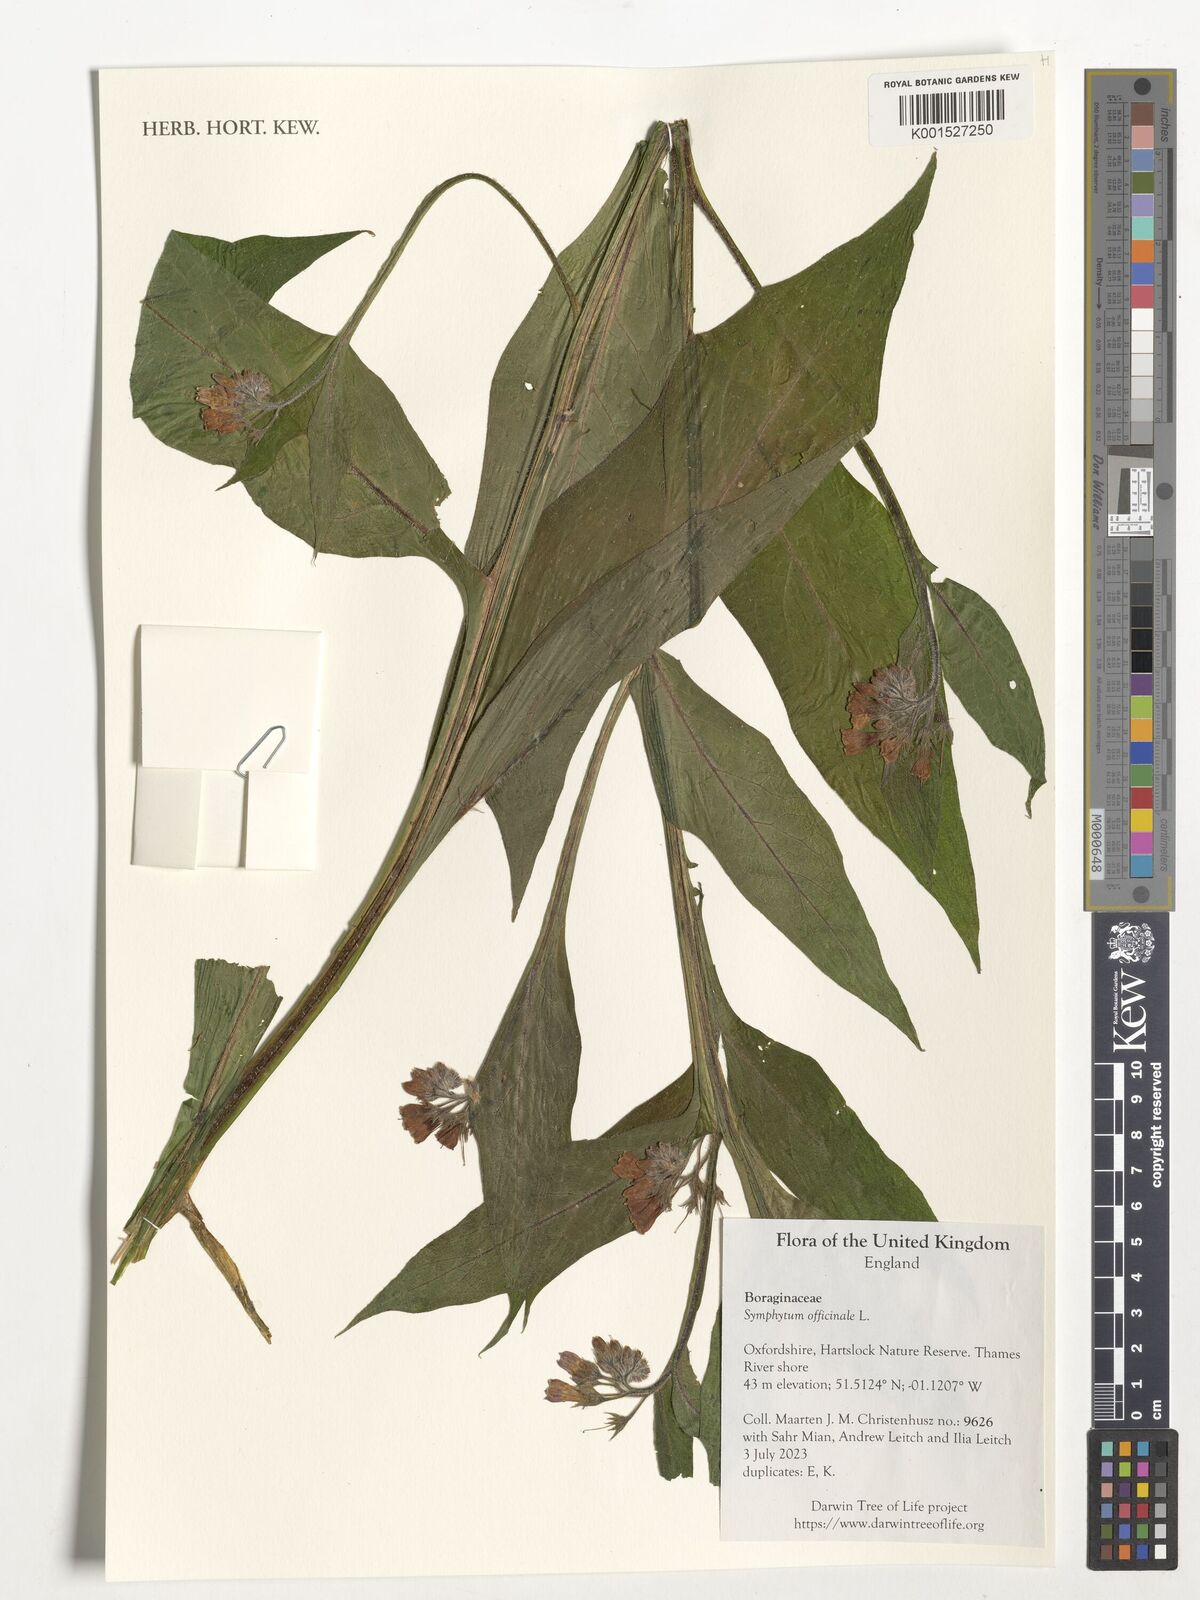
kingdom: Plantae
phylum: Tracheophyta
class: Magnoliopsida
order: Boraginales
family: Boraginaceae
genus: Symphytum
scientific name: Symphytum officinale
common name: Common comfrey
